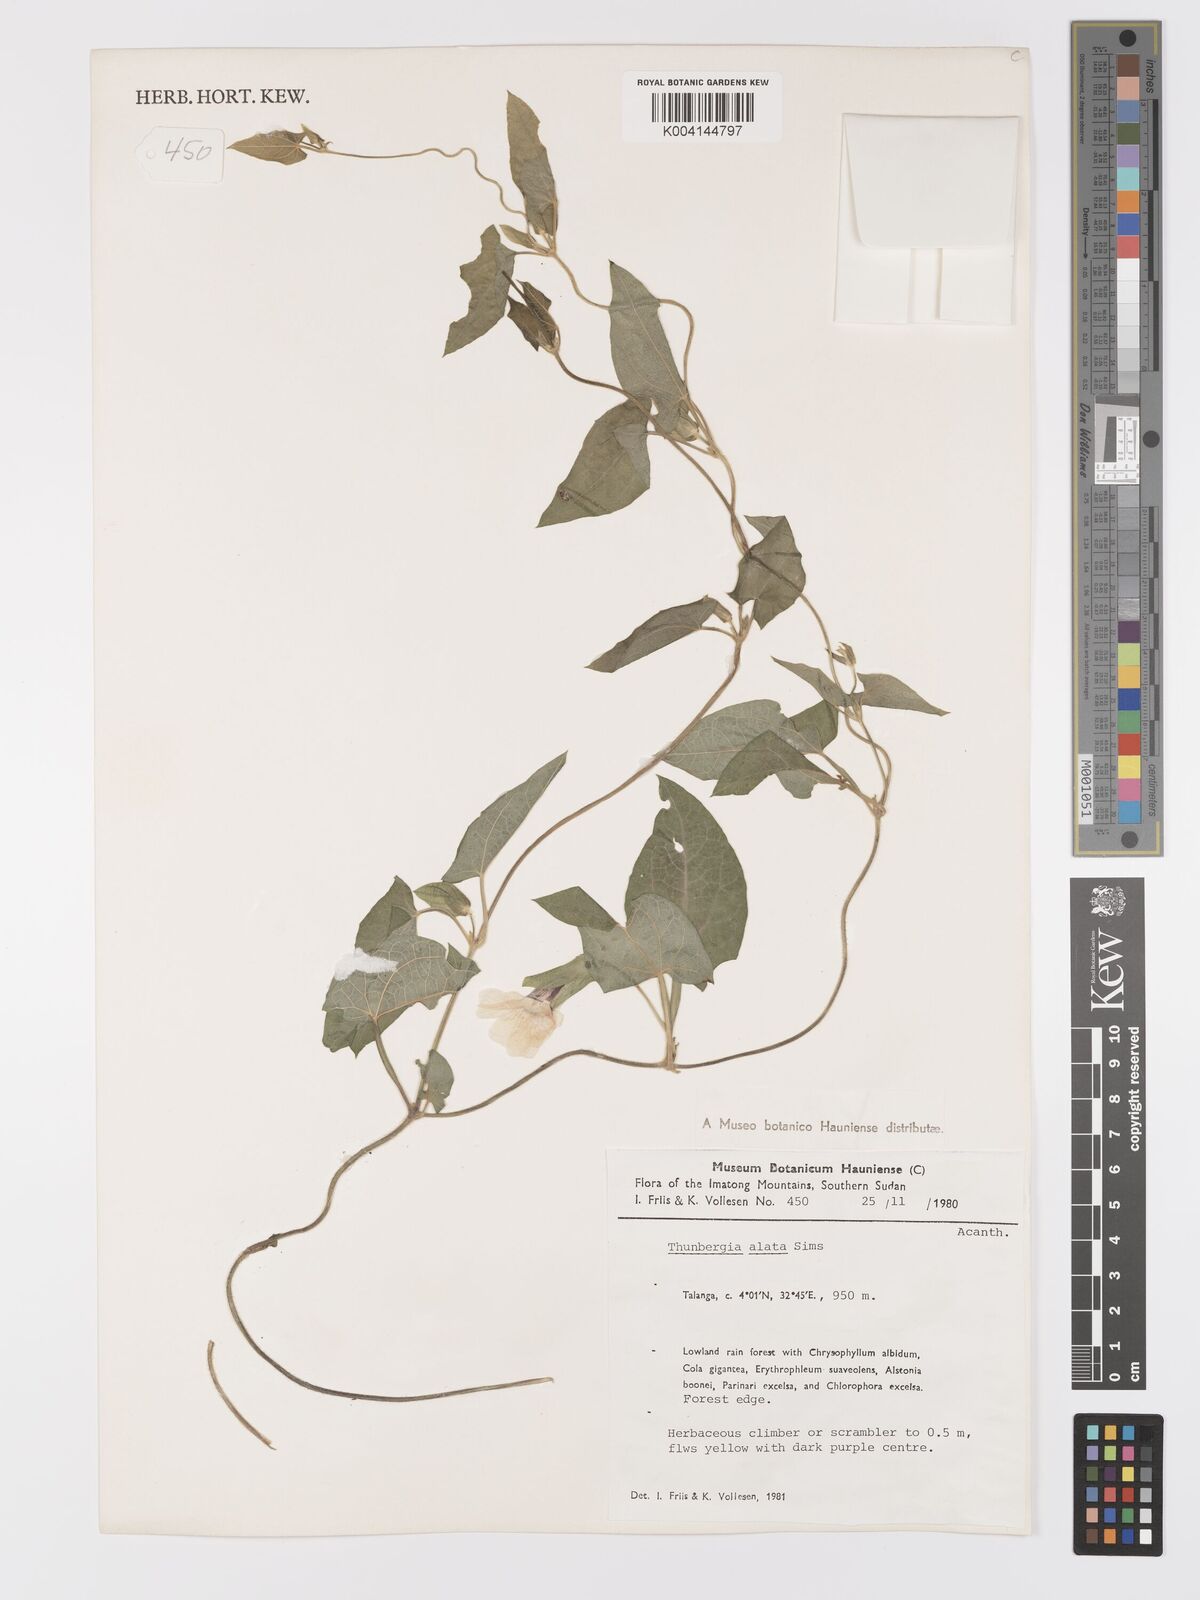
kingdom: Plantae
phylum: Tracheophyta
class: Magnoliopsida
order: Lamiales
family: Acanthaceae
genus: Thunbergia
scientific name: Thunbergia alata
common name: Blackeyed susan vine
